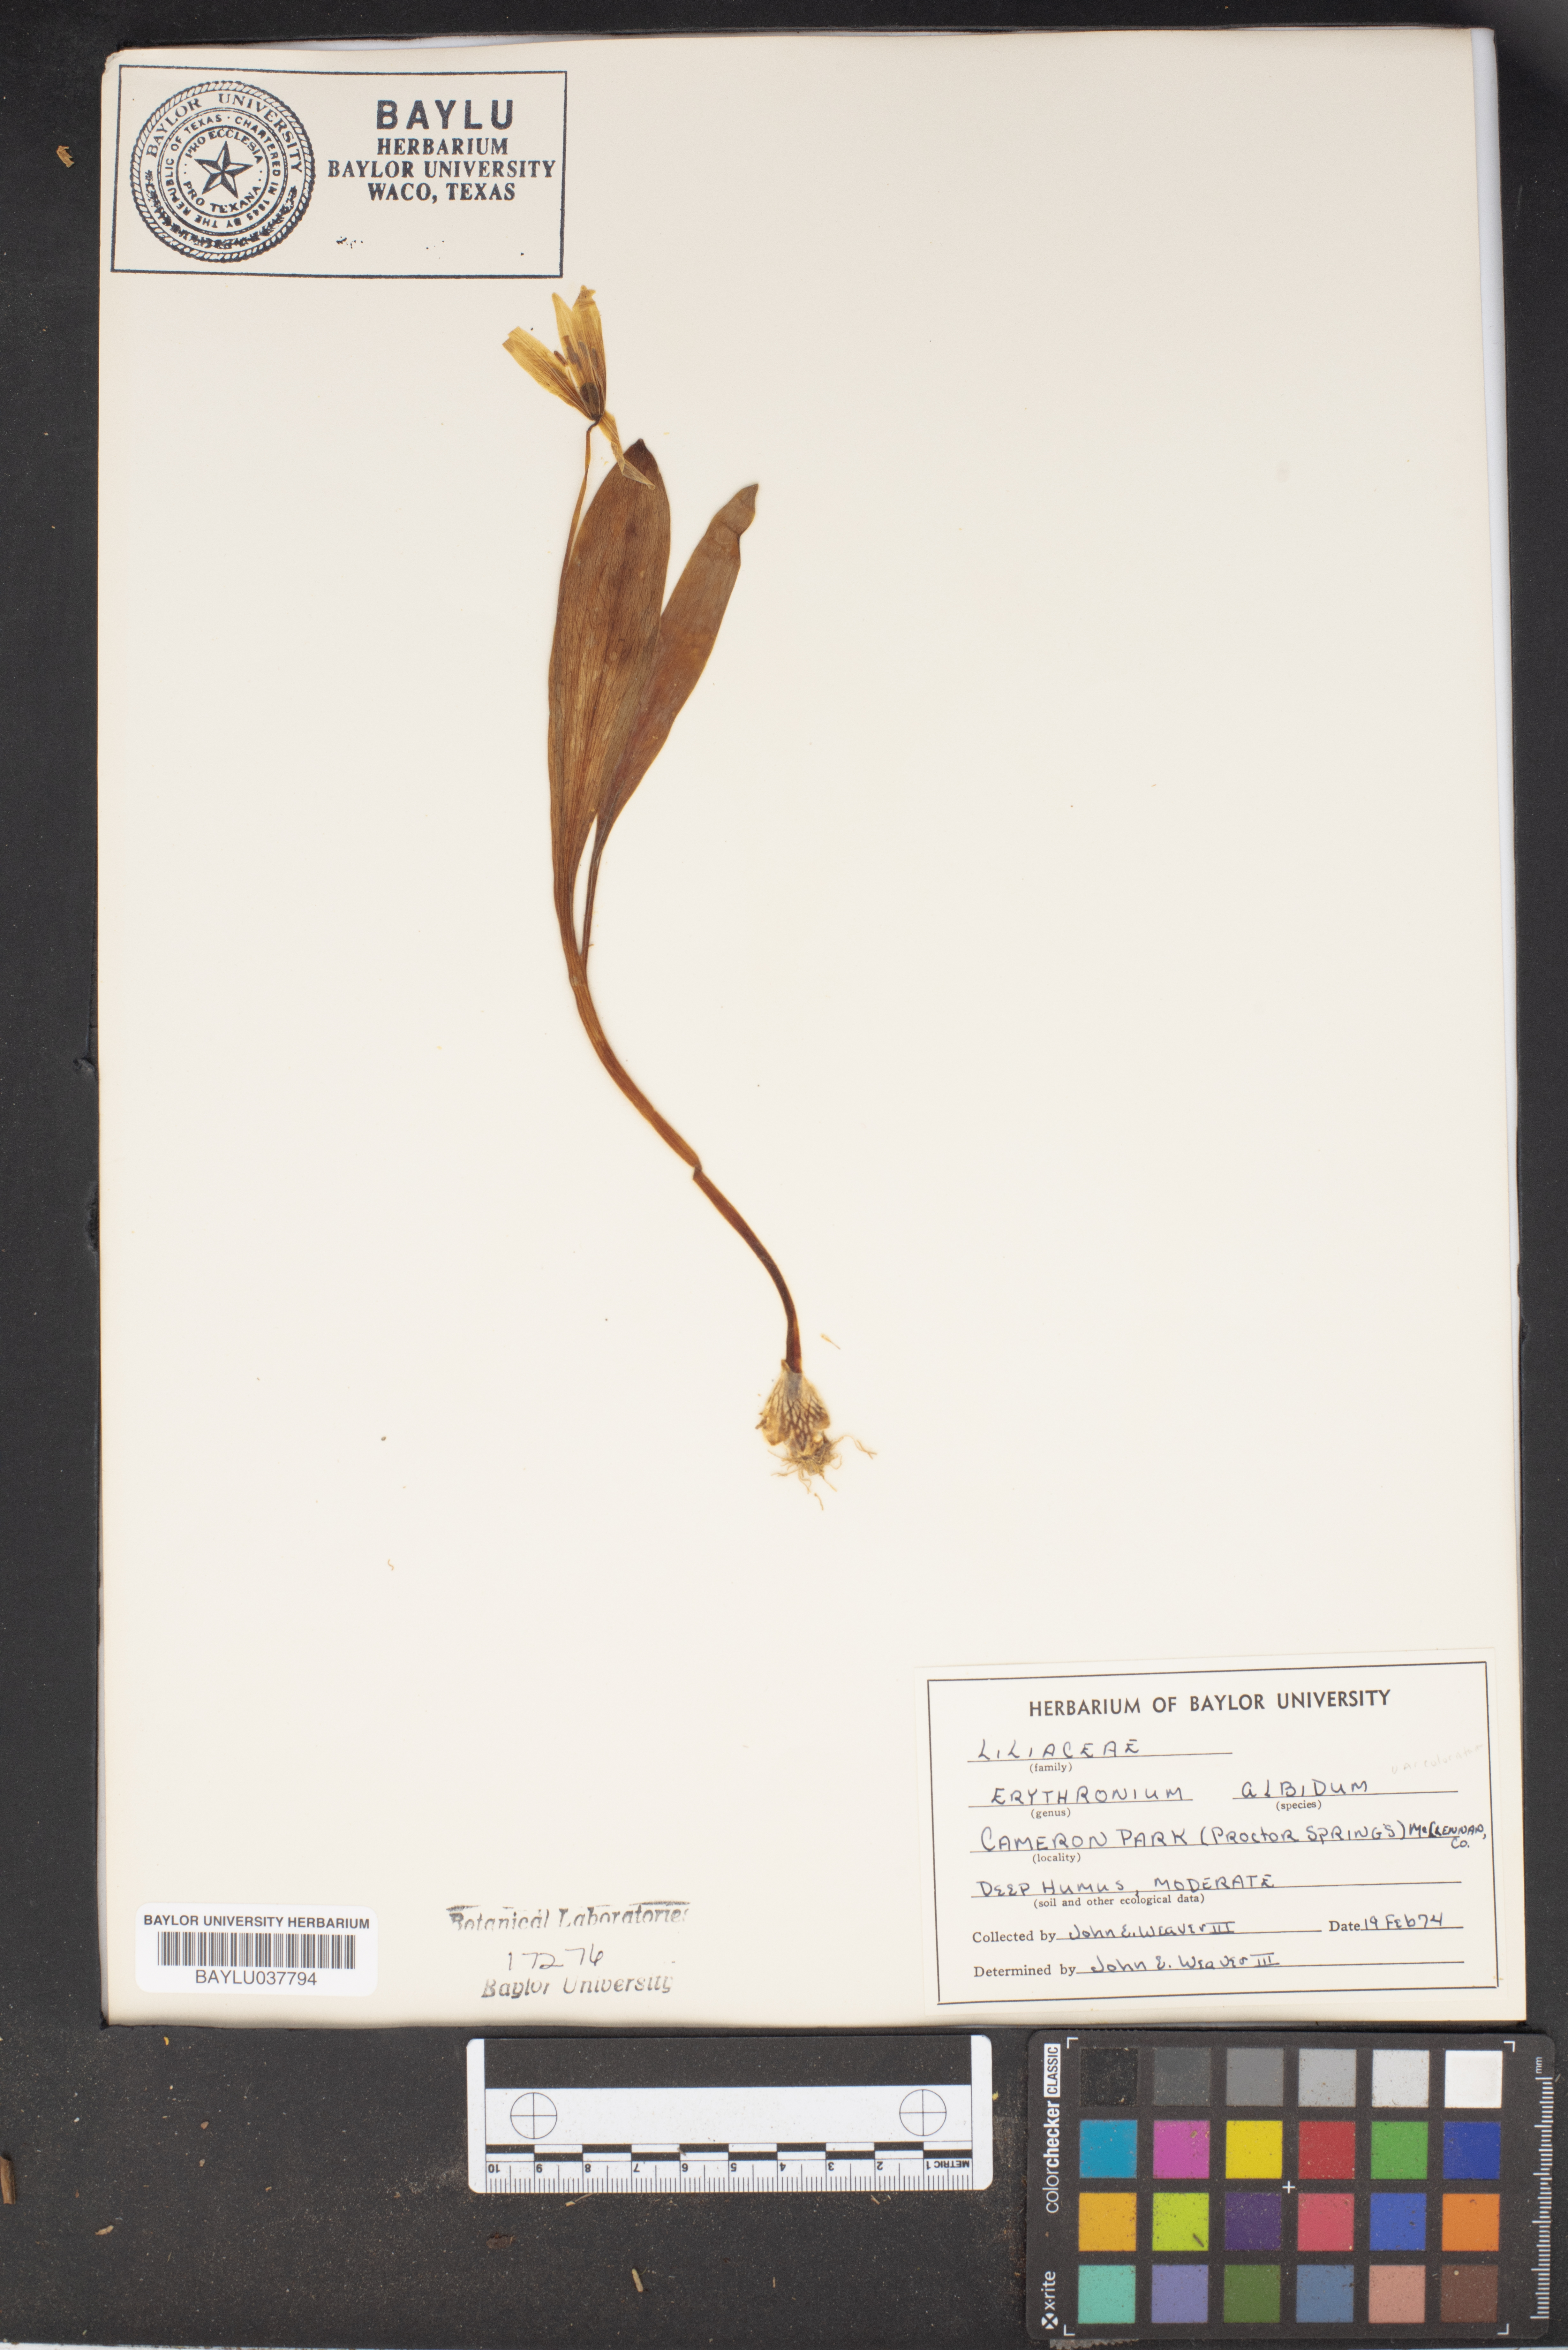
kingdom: Plantae
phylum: Tracheophyta
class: Liliopsida
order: Liliales
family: Liliaceae
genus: Erythronium
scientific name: Erythronium albidum
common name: White trout-lily
